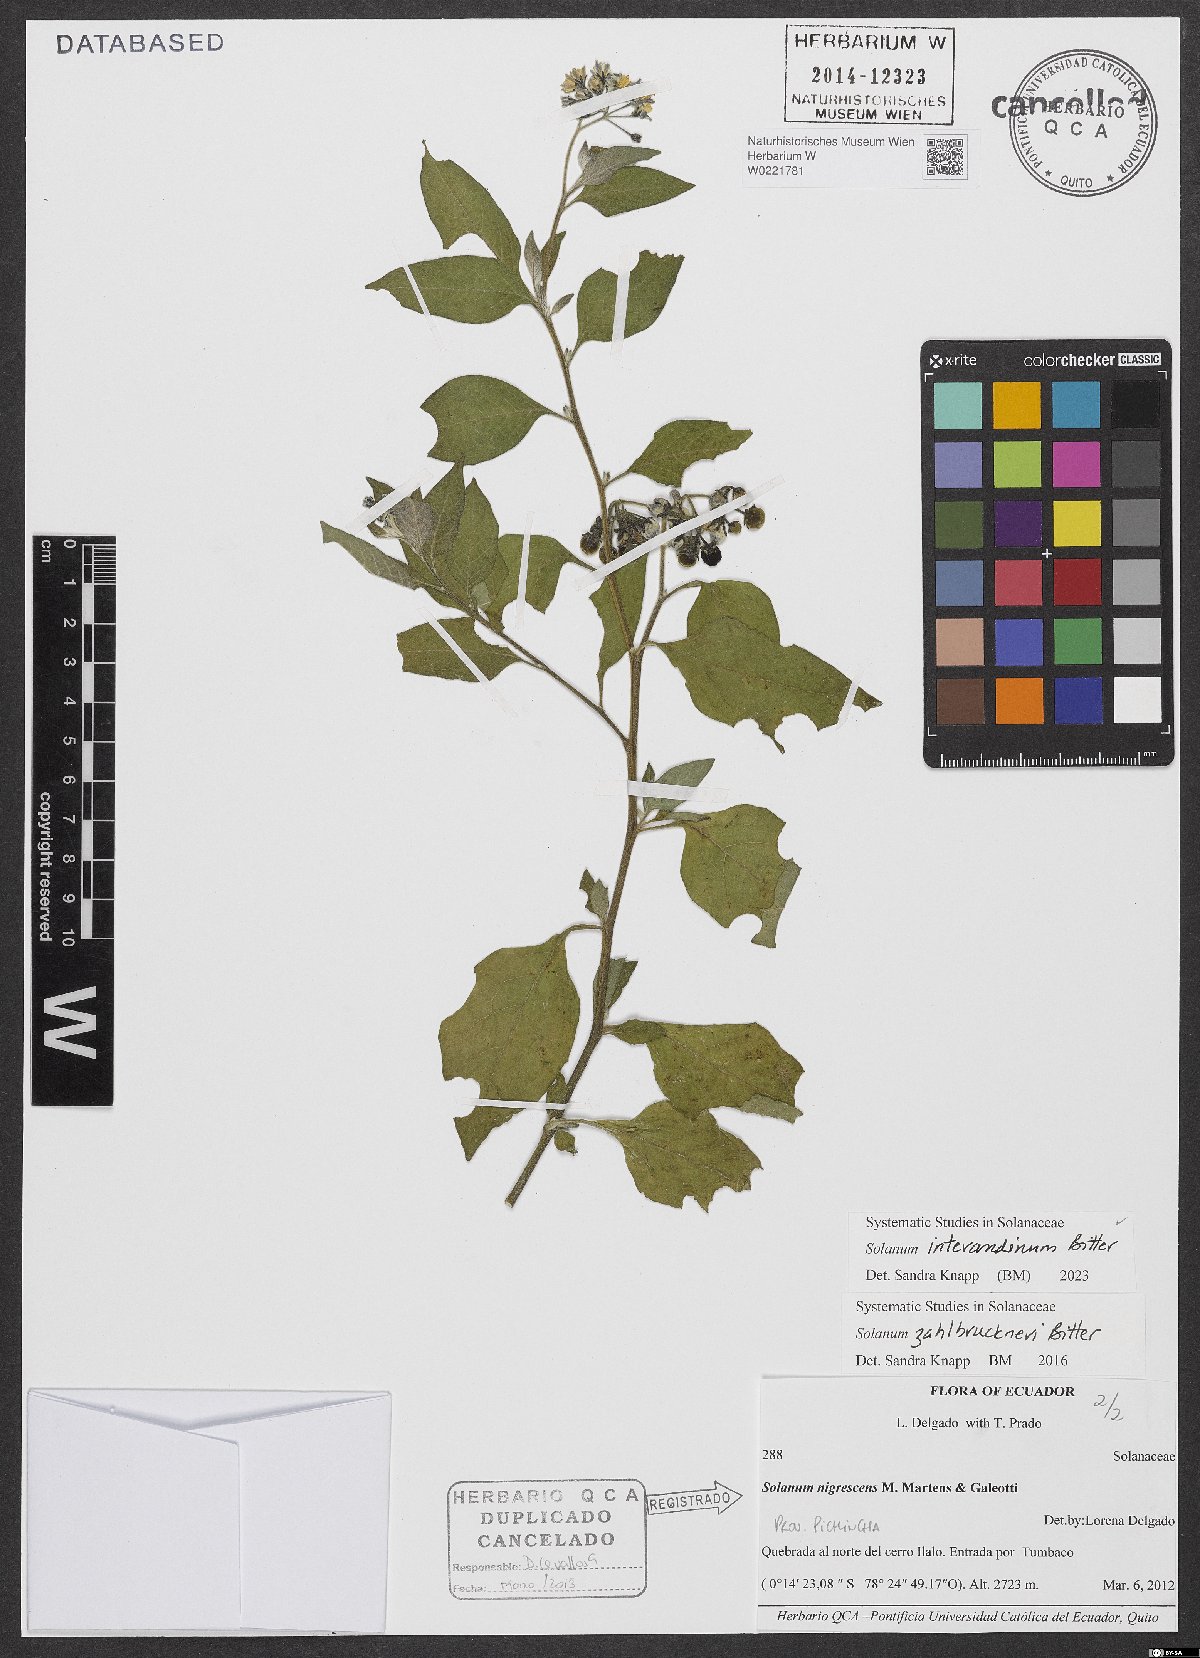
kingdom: Plantae
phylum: Tracheophyta
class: Magnoliopsida
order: Solanales
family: Solanaceae
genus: Solanum
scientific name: Solanum interandinum
